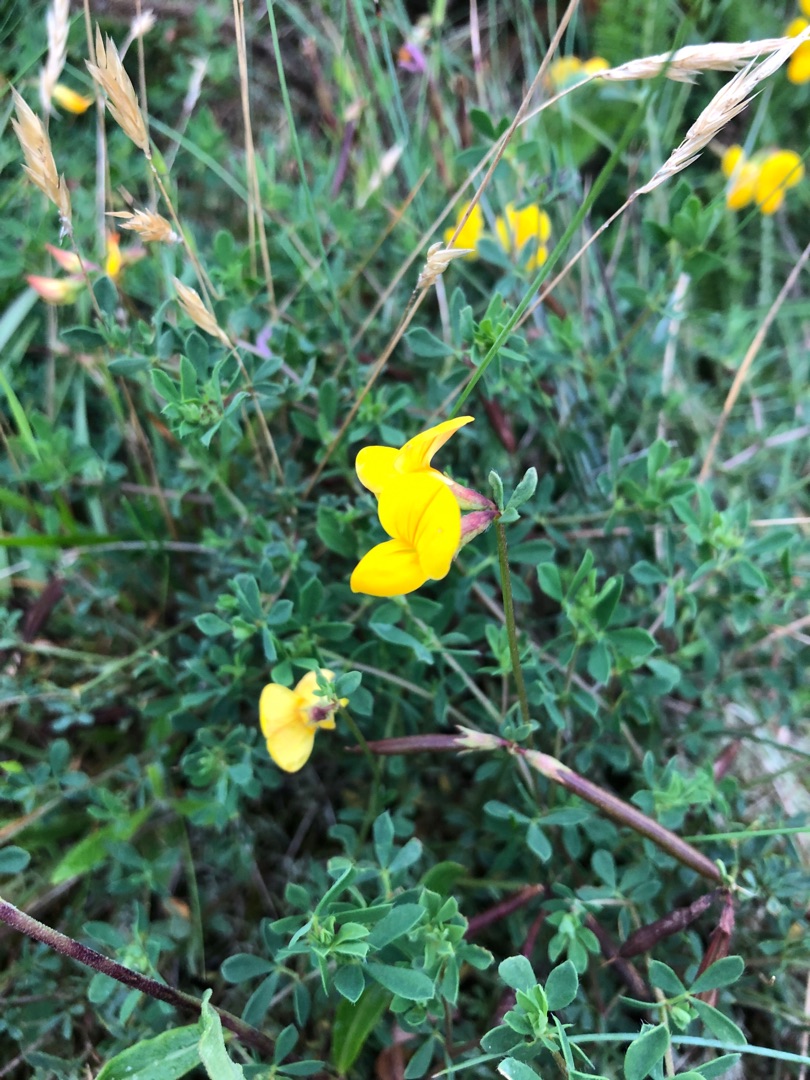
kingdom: Plantae
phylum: Tracheophyta
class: Magnoliopsida
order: Fabales
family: Fabaceae
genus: Lotus
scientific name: Lotus corniculatus
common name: Almindelig kællingetand
